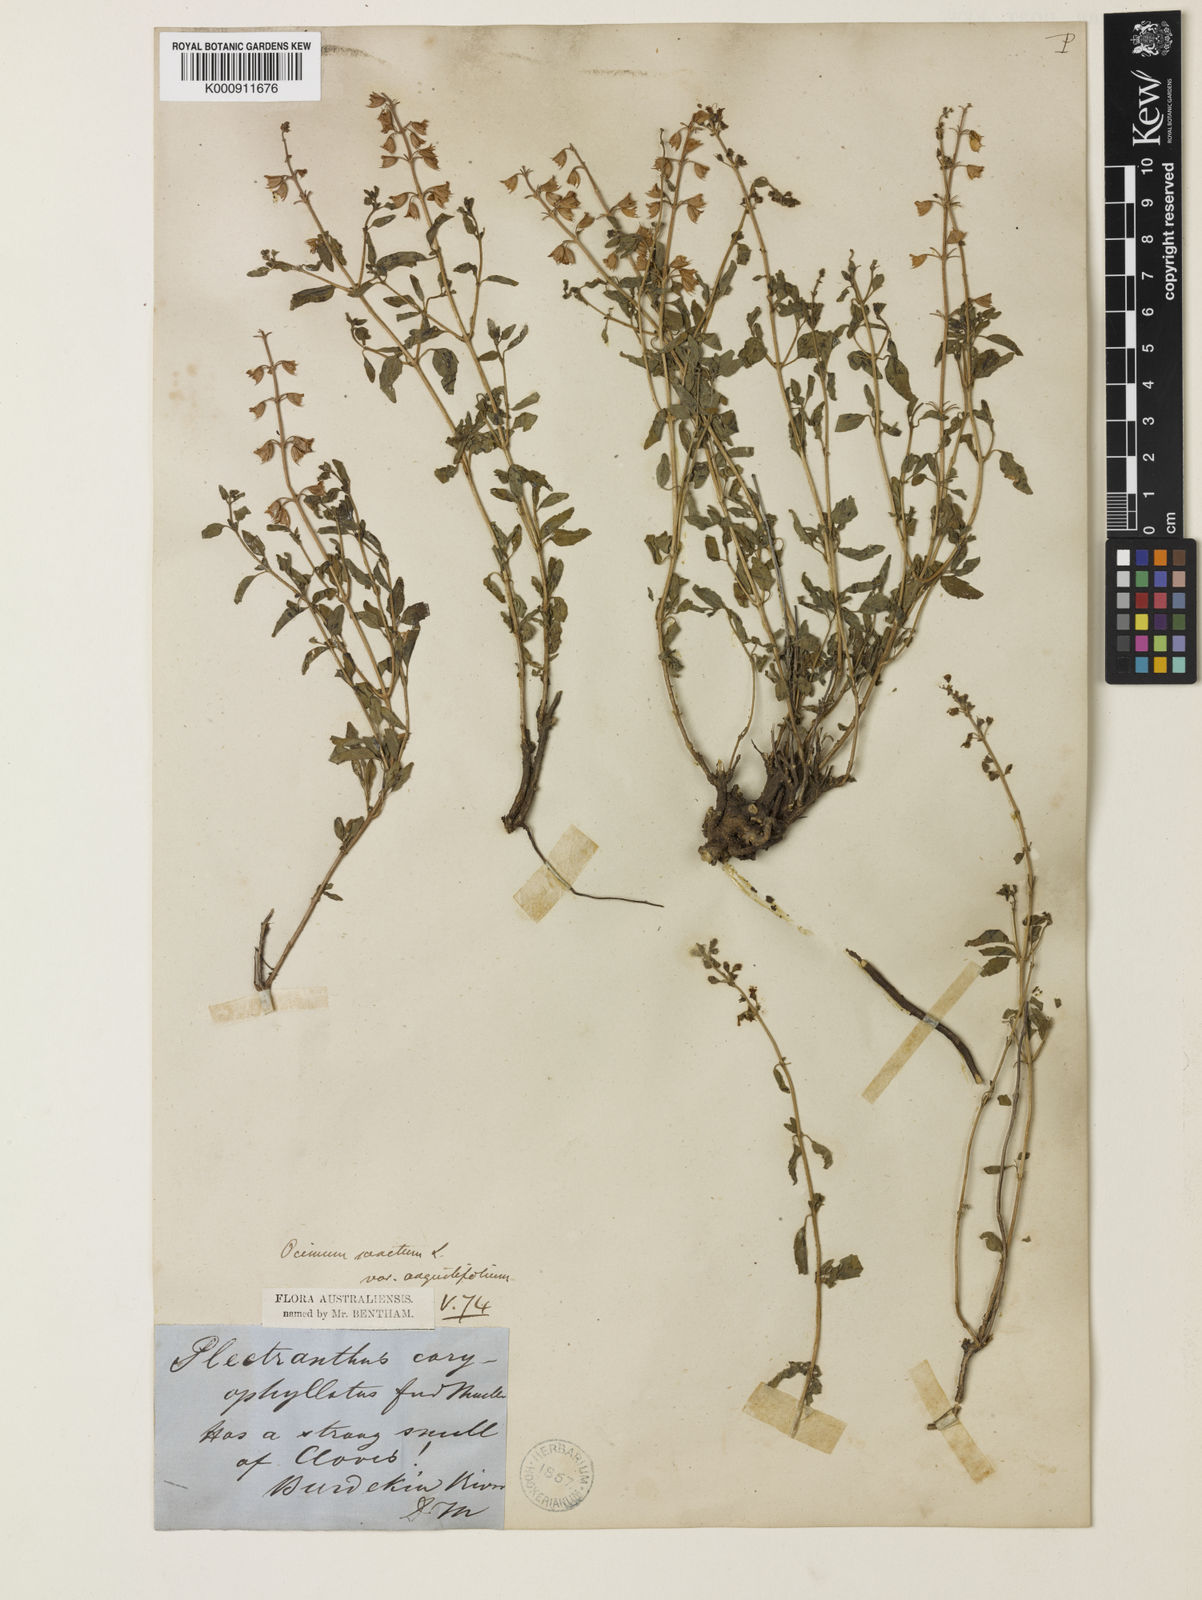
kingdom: Plantae
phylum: Tracheophyta
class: Magnoliopsida
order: Lamiales
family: Lamiaceae
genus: Ocimum
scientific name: Ocimum
